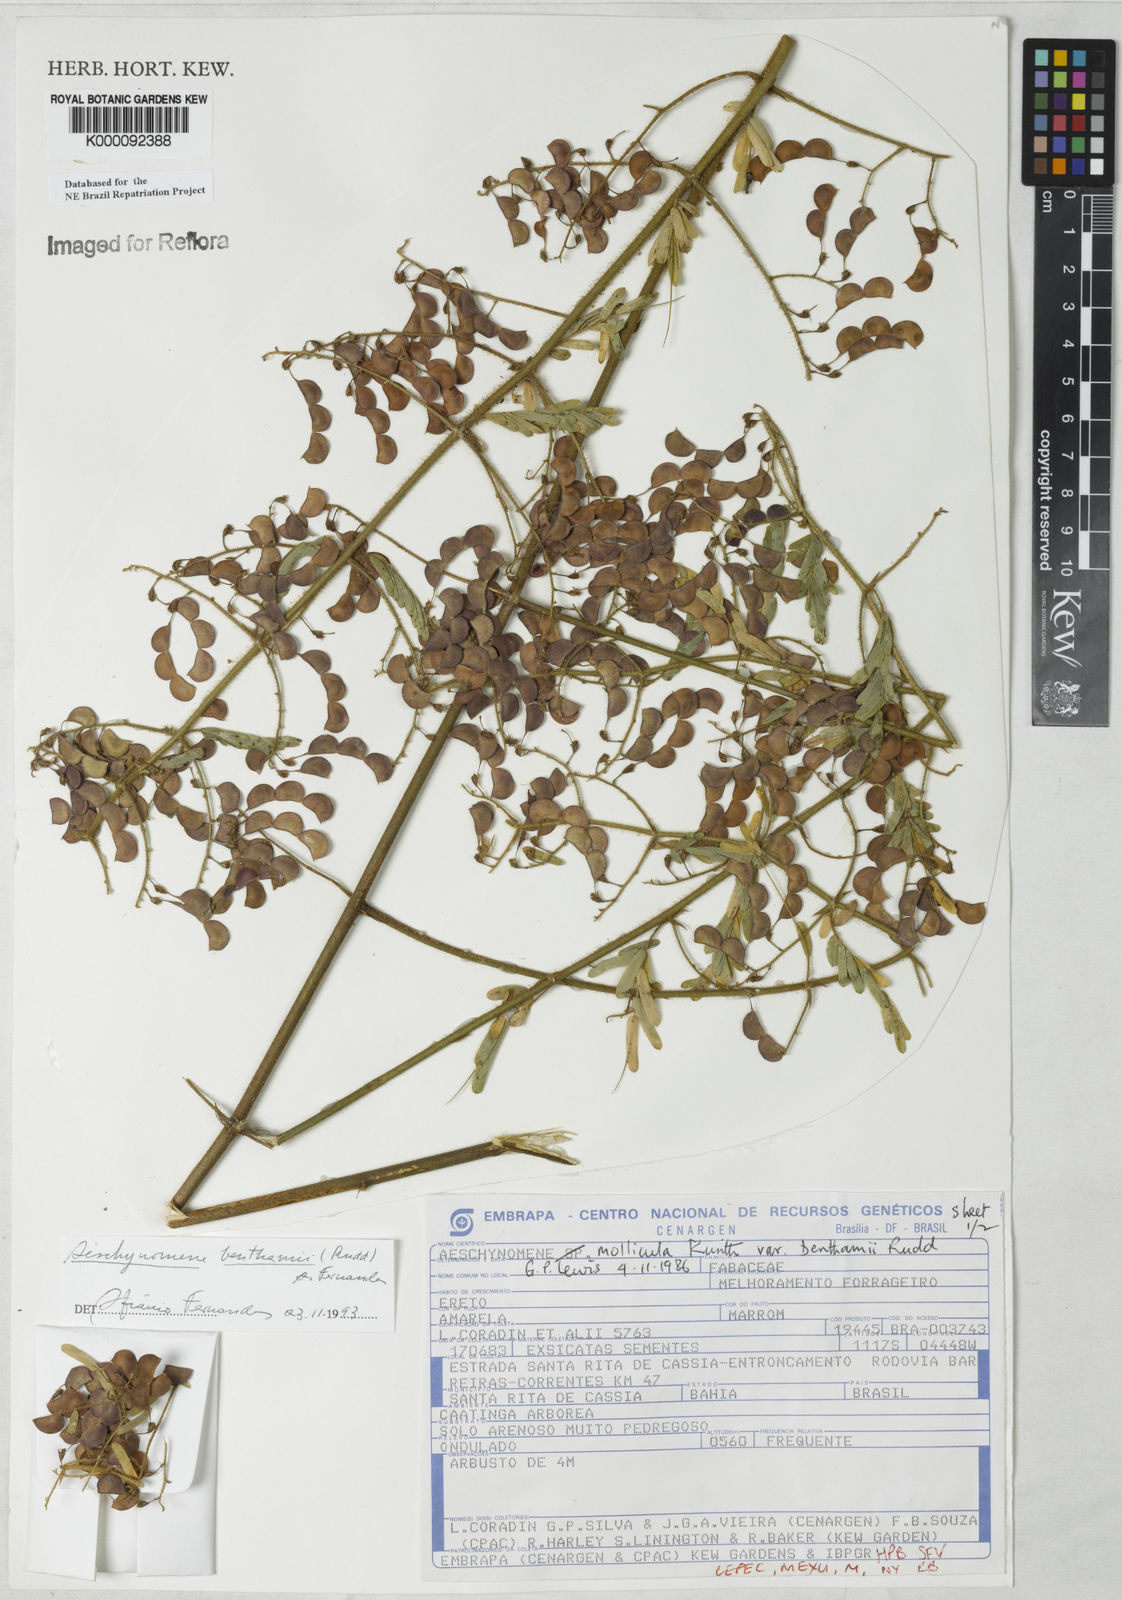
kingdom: Plantae
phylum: Tracheophyta
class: Magnoliopsida
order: Fabales
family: Fabaceae
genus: Aeschynomene
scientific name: Aeschynomene
